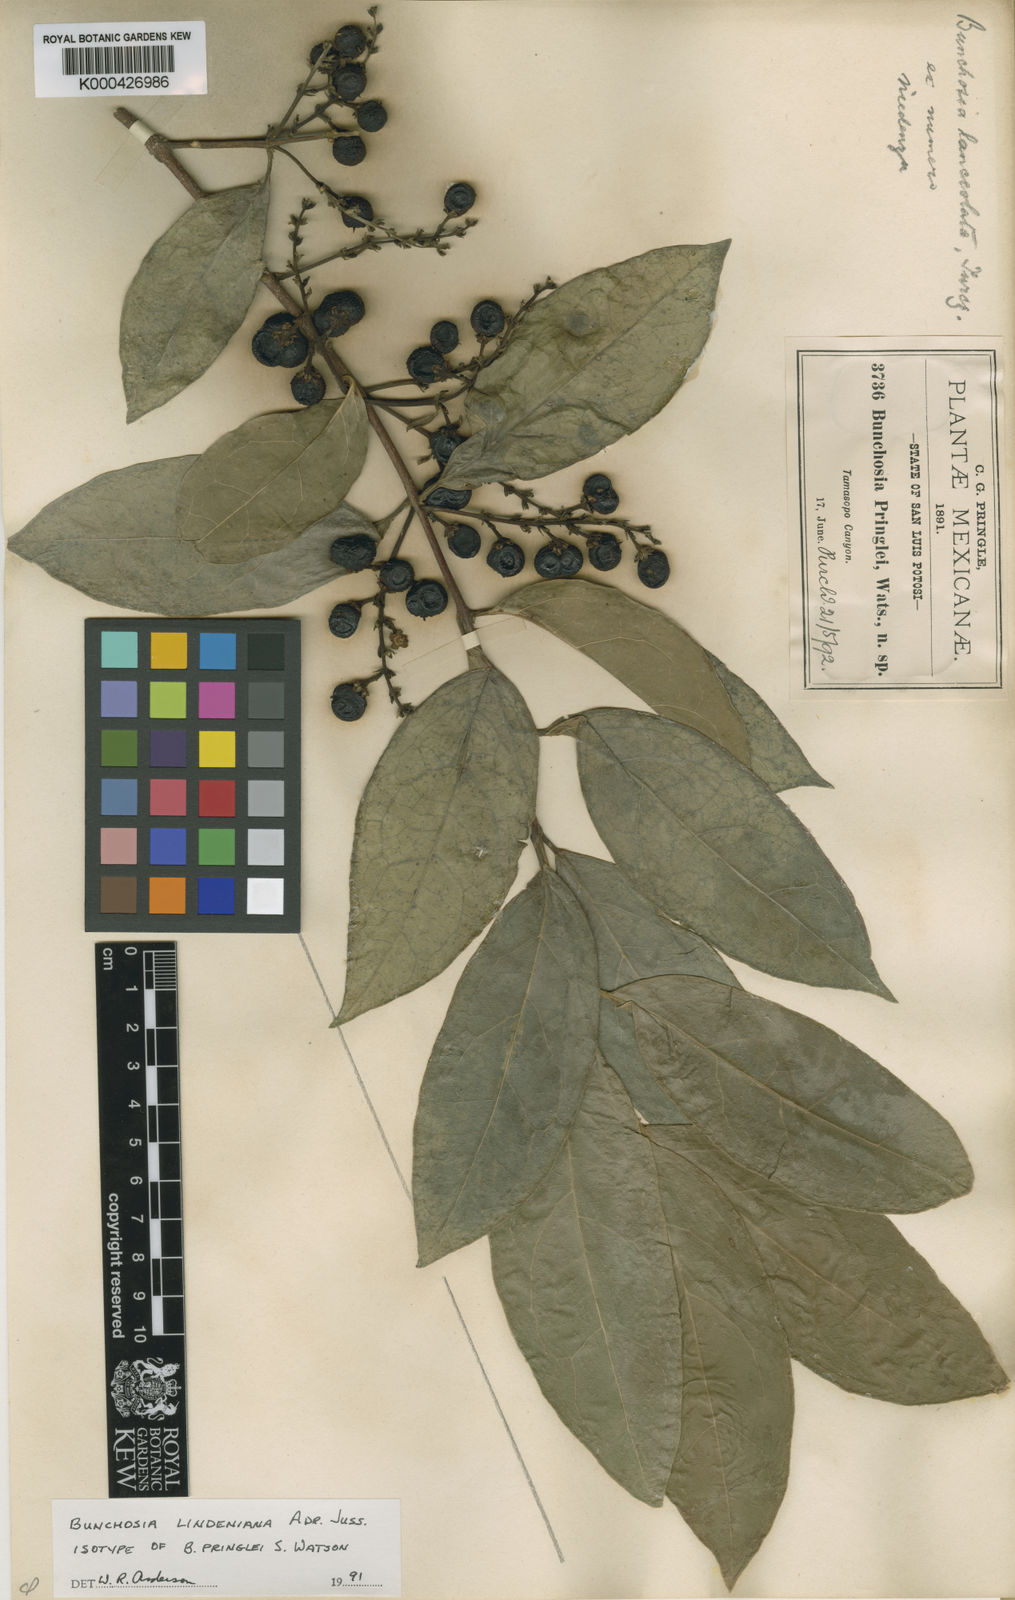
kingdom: Plantae
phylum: Tracheophyta
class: Magnoliopsida
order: Malpighiales
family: Malpighiaceae
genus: Bunchosia
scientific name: Bunchosia lindeniana
